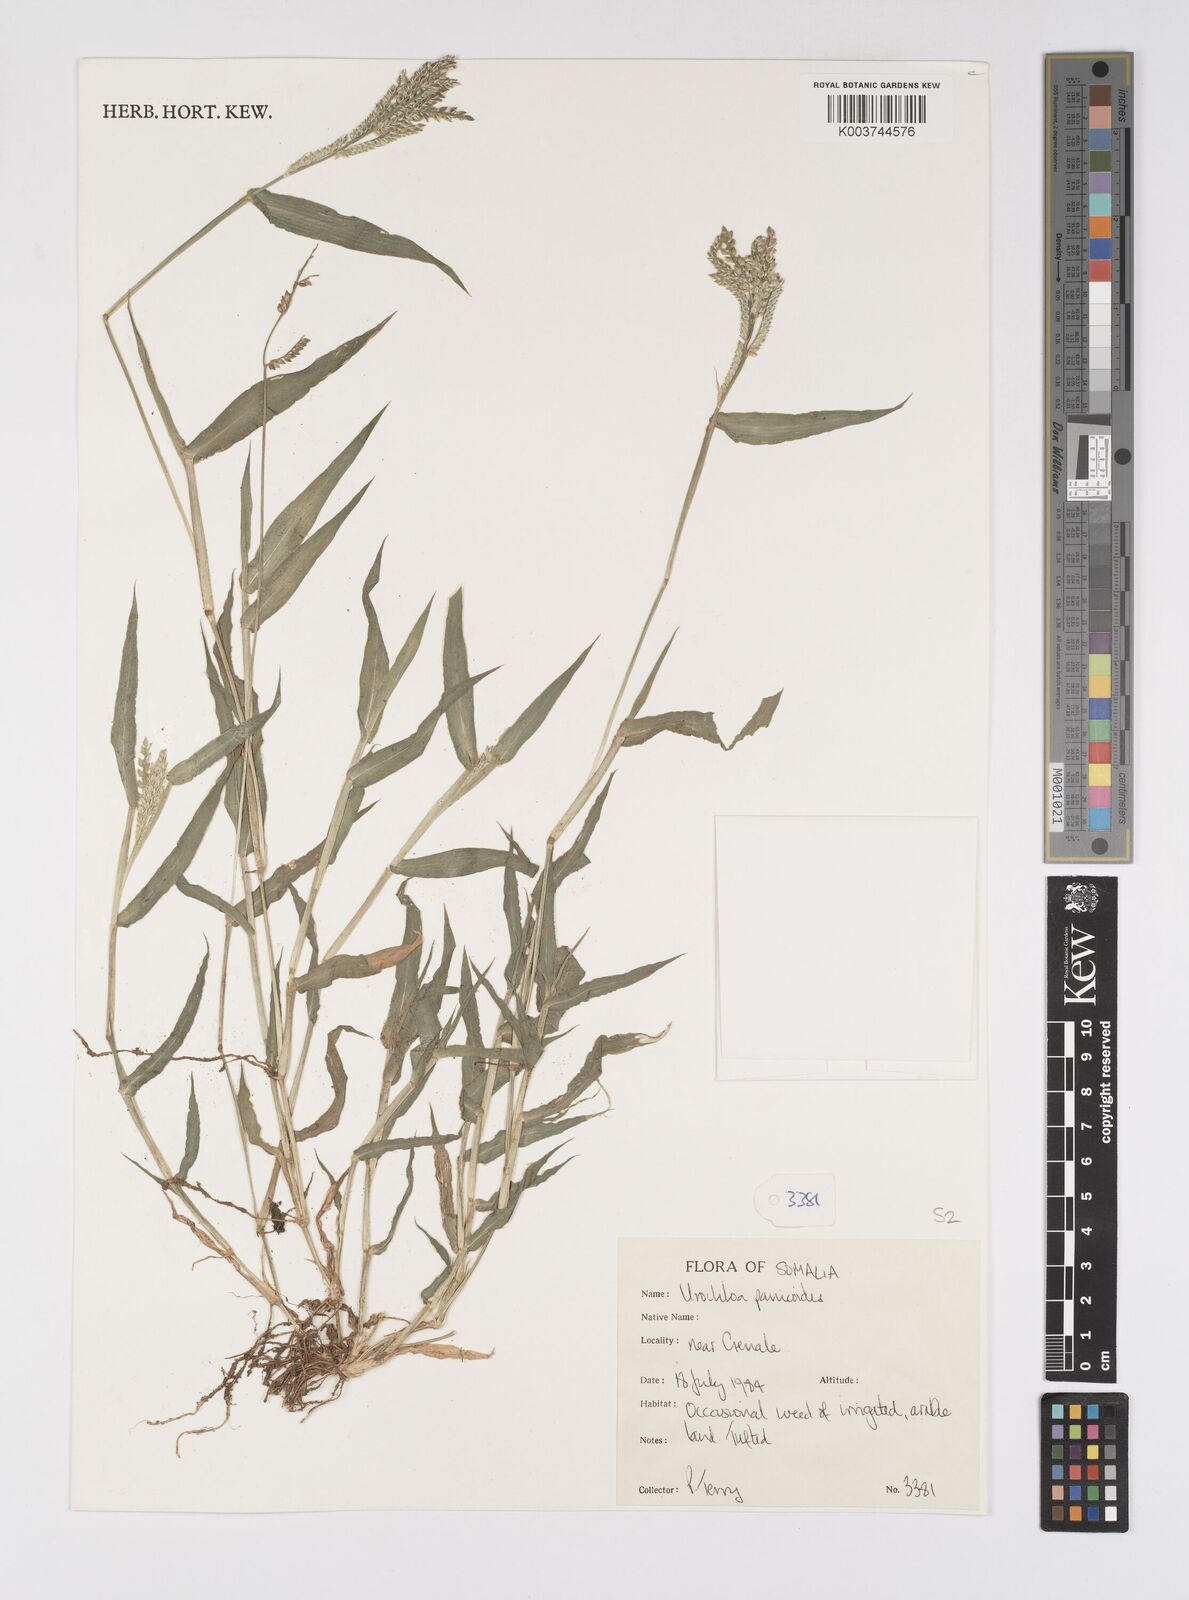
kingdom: Plantae
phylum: Tracheophyta
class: Liliopsida
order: Poales
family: Poaceae
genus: Urochloa
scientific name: Urochloa panicoides
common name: Sharp-flowered signal-grass
